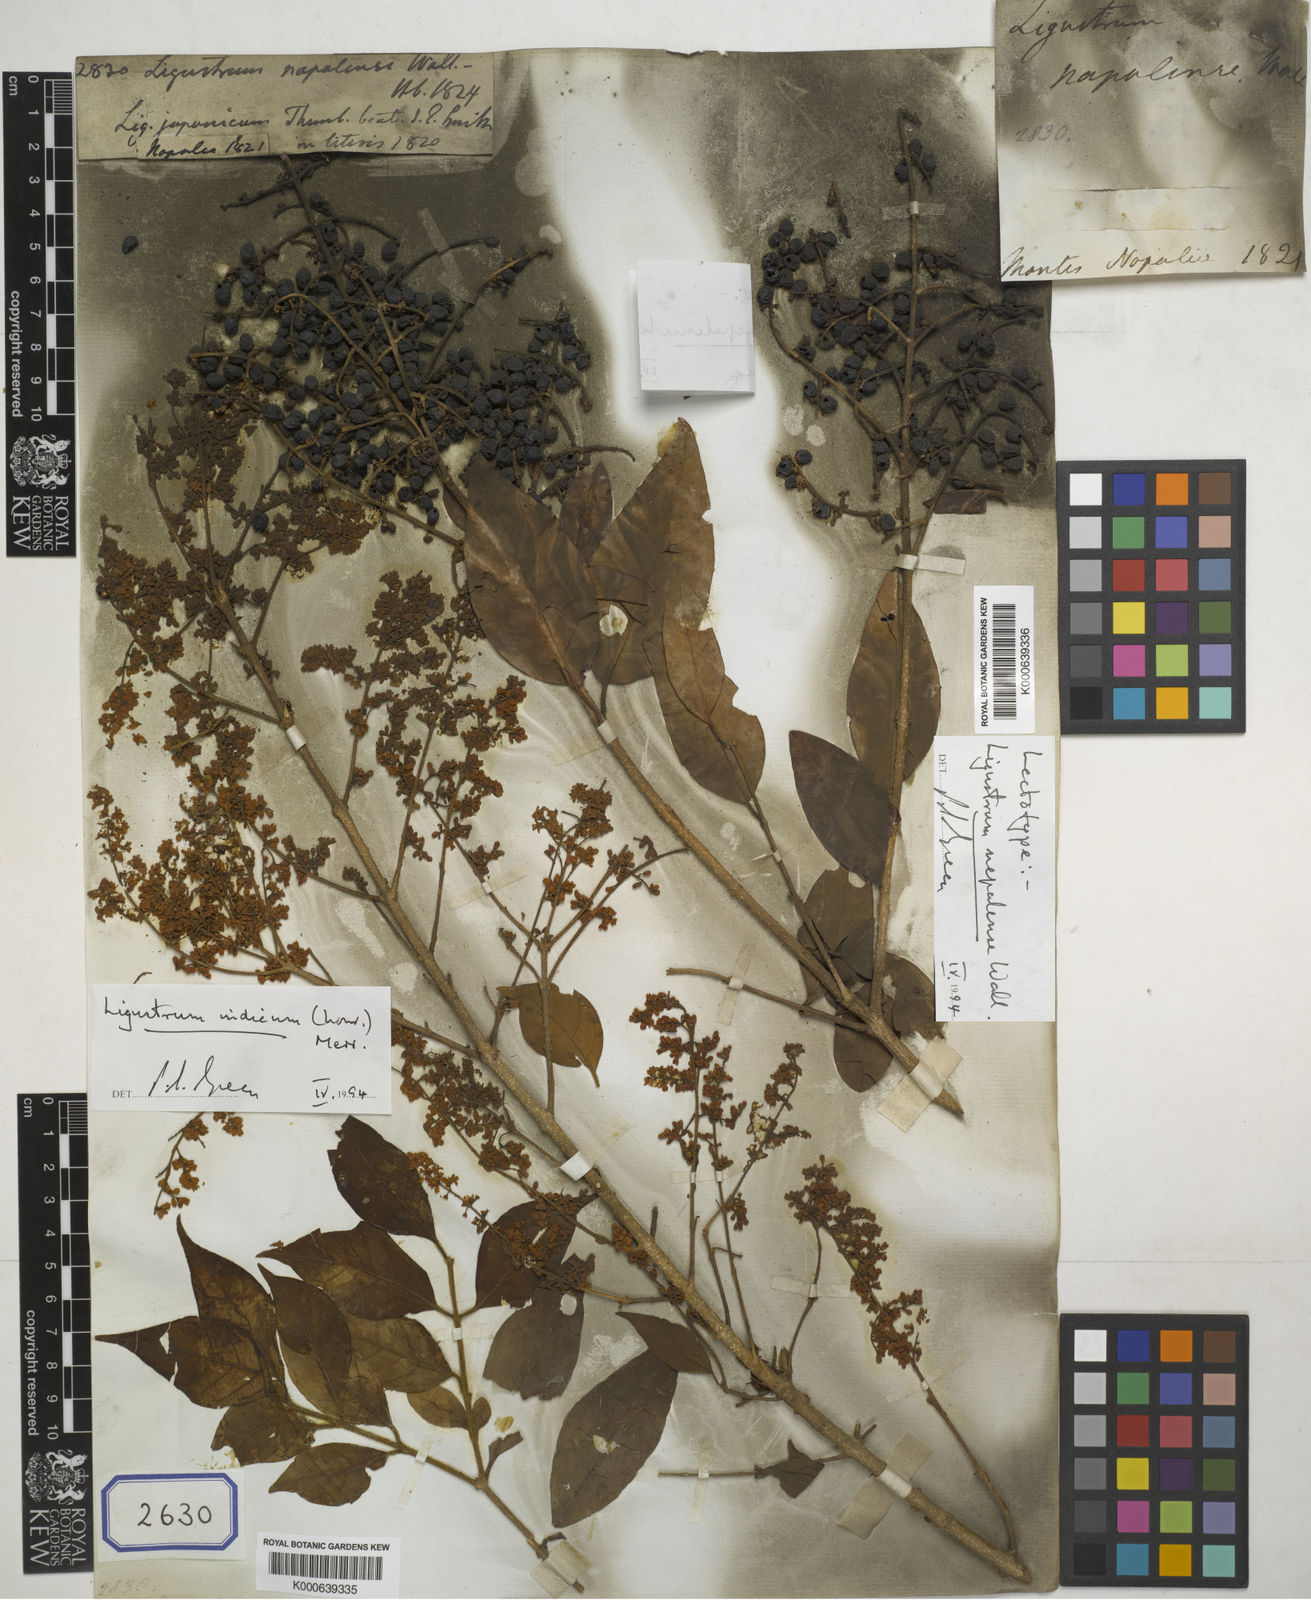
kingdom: Plantae
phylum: Tracheophyta
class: Magnoliopsida
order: Lamiales
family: Oleaceae
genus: Ligustrum
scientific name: Ligustrum nepalense
